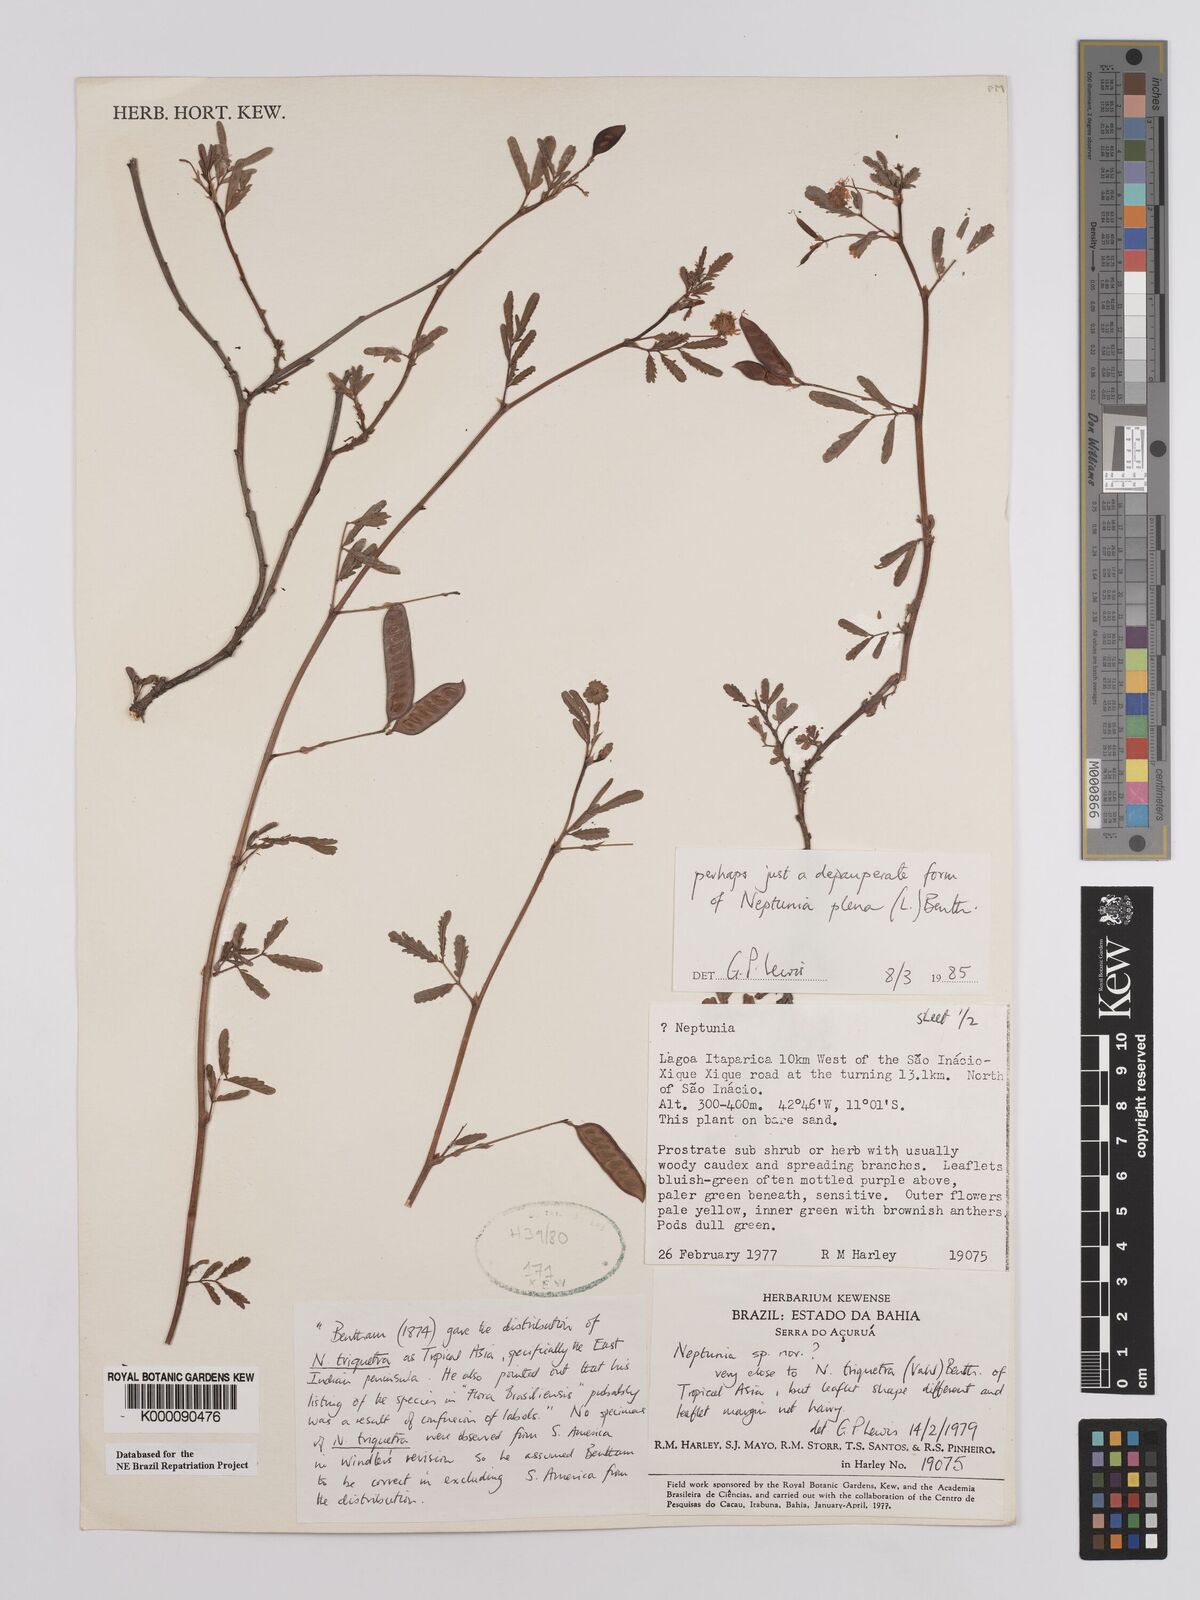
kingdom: Plantae
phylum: Tracheophyta
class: Magnoliopsida
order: Fabales
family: Fabaceae
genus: Neptunia
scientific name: Neptunia plena
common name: Dead and awake
